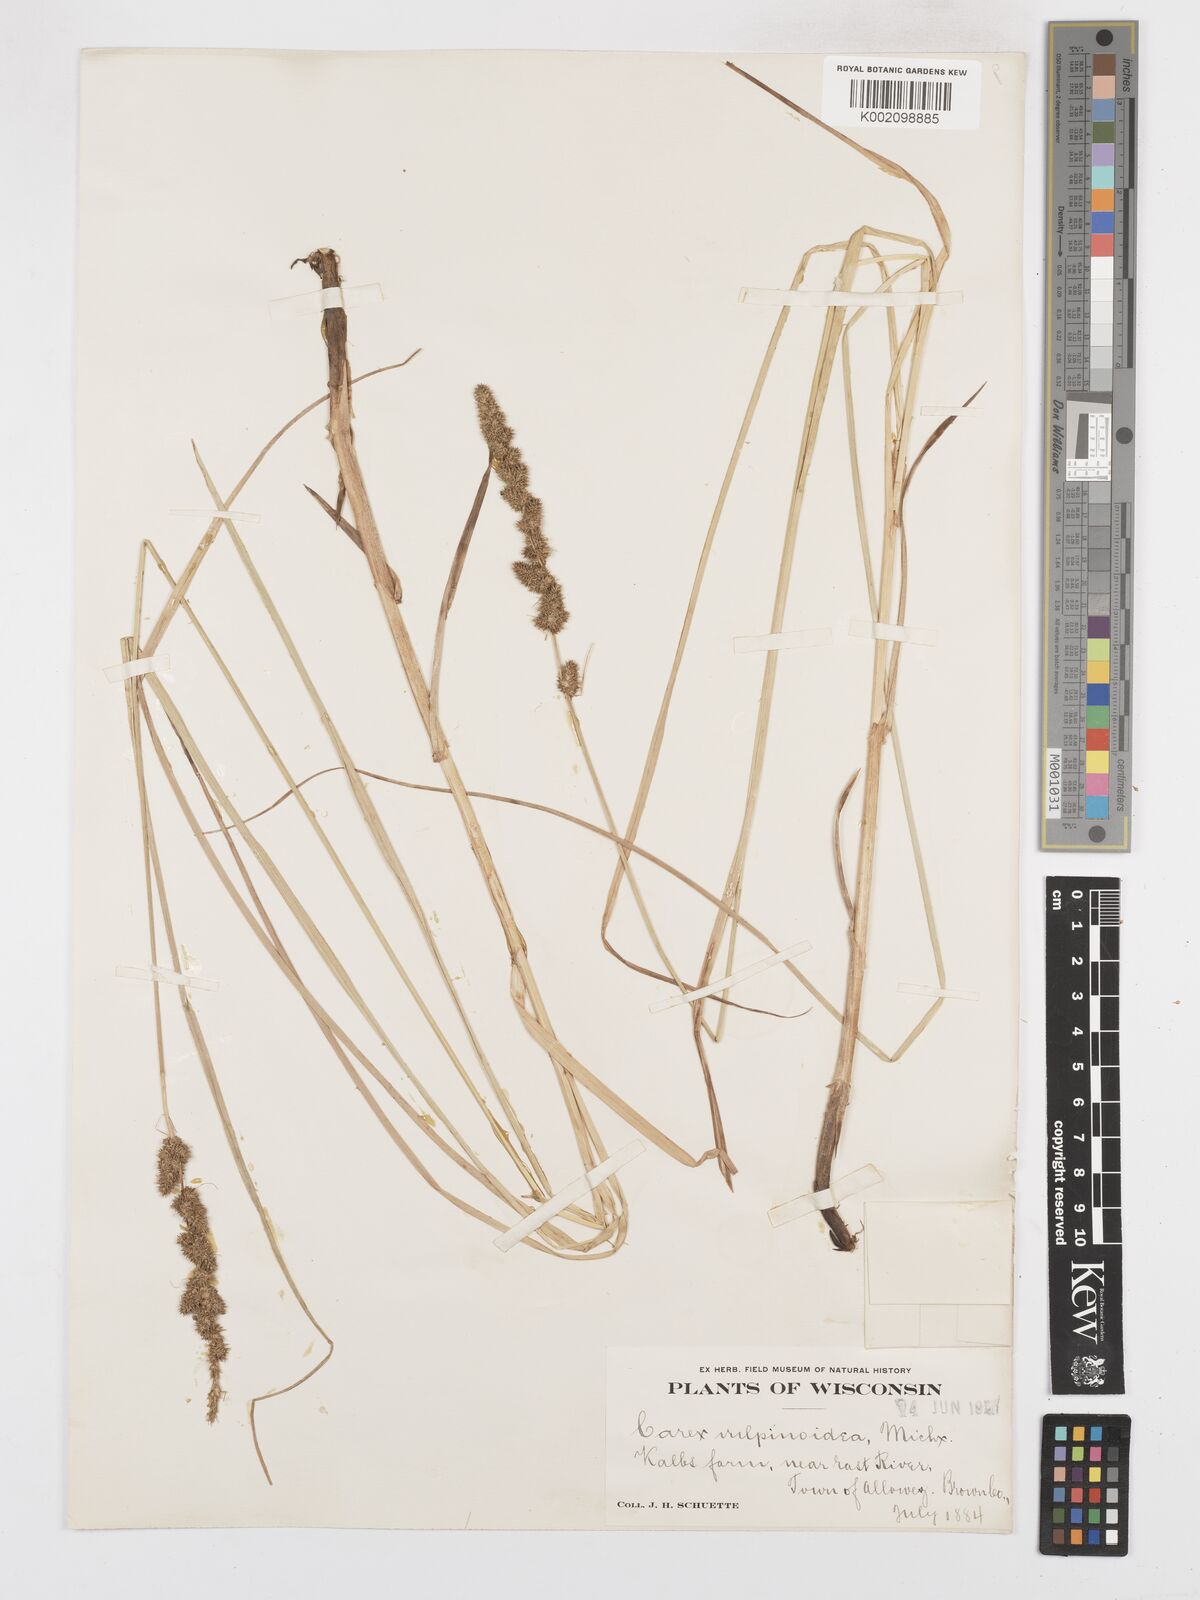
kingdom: Plantae
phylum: Tracheophyta
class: Liliopsida
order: Poales
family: Cyperaceae
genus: Carex
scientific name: Carex vulpinoidea
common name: American fox-sedge
